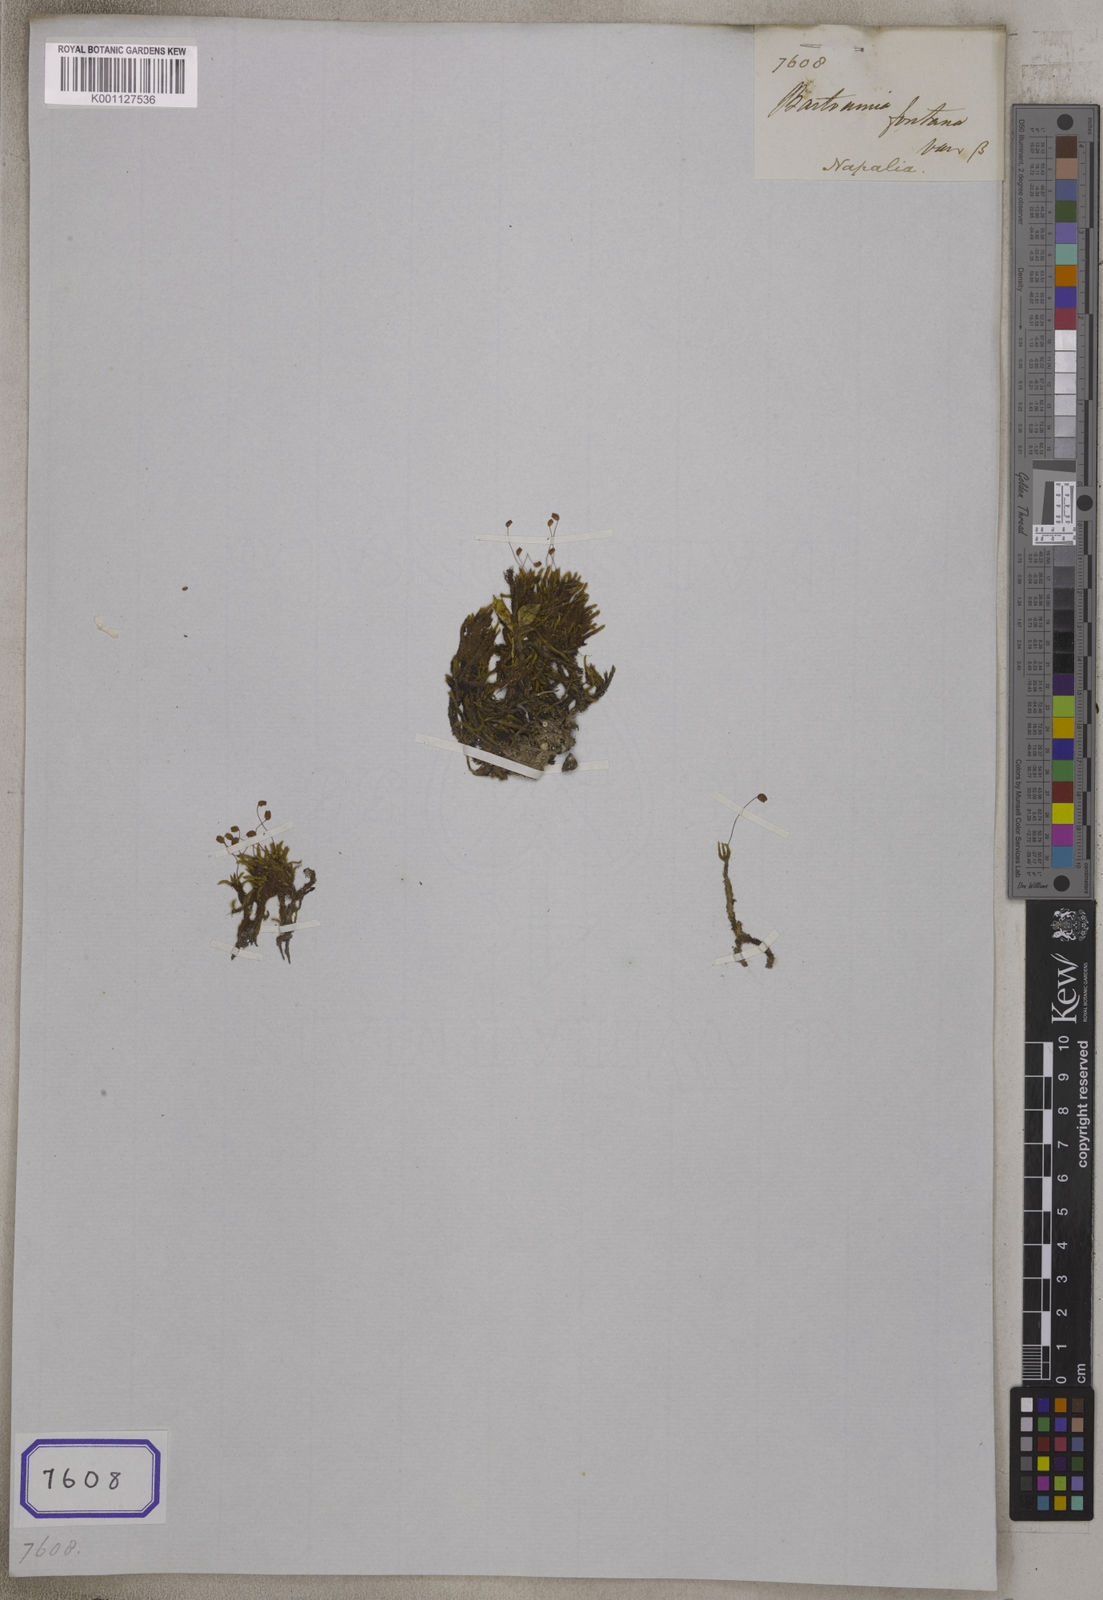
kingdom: Plantae
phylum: Tracheophyta
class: Magnoliopsida
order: Malvales
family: Tiliaceae
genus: Bartramia
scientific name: Bartramia
